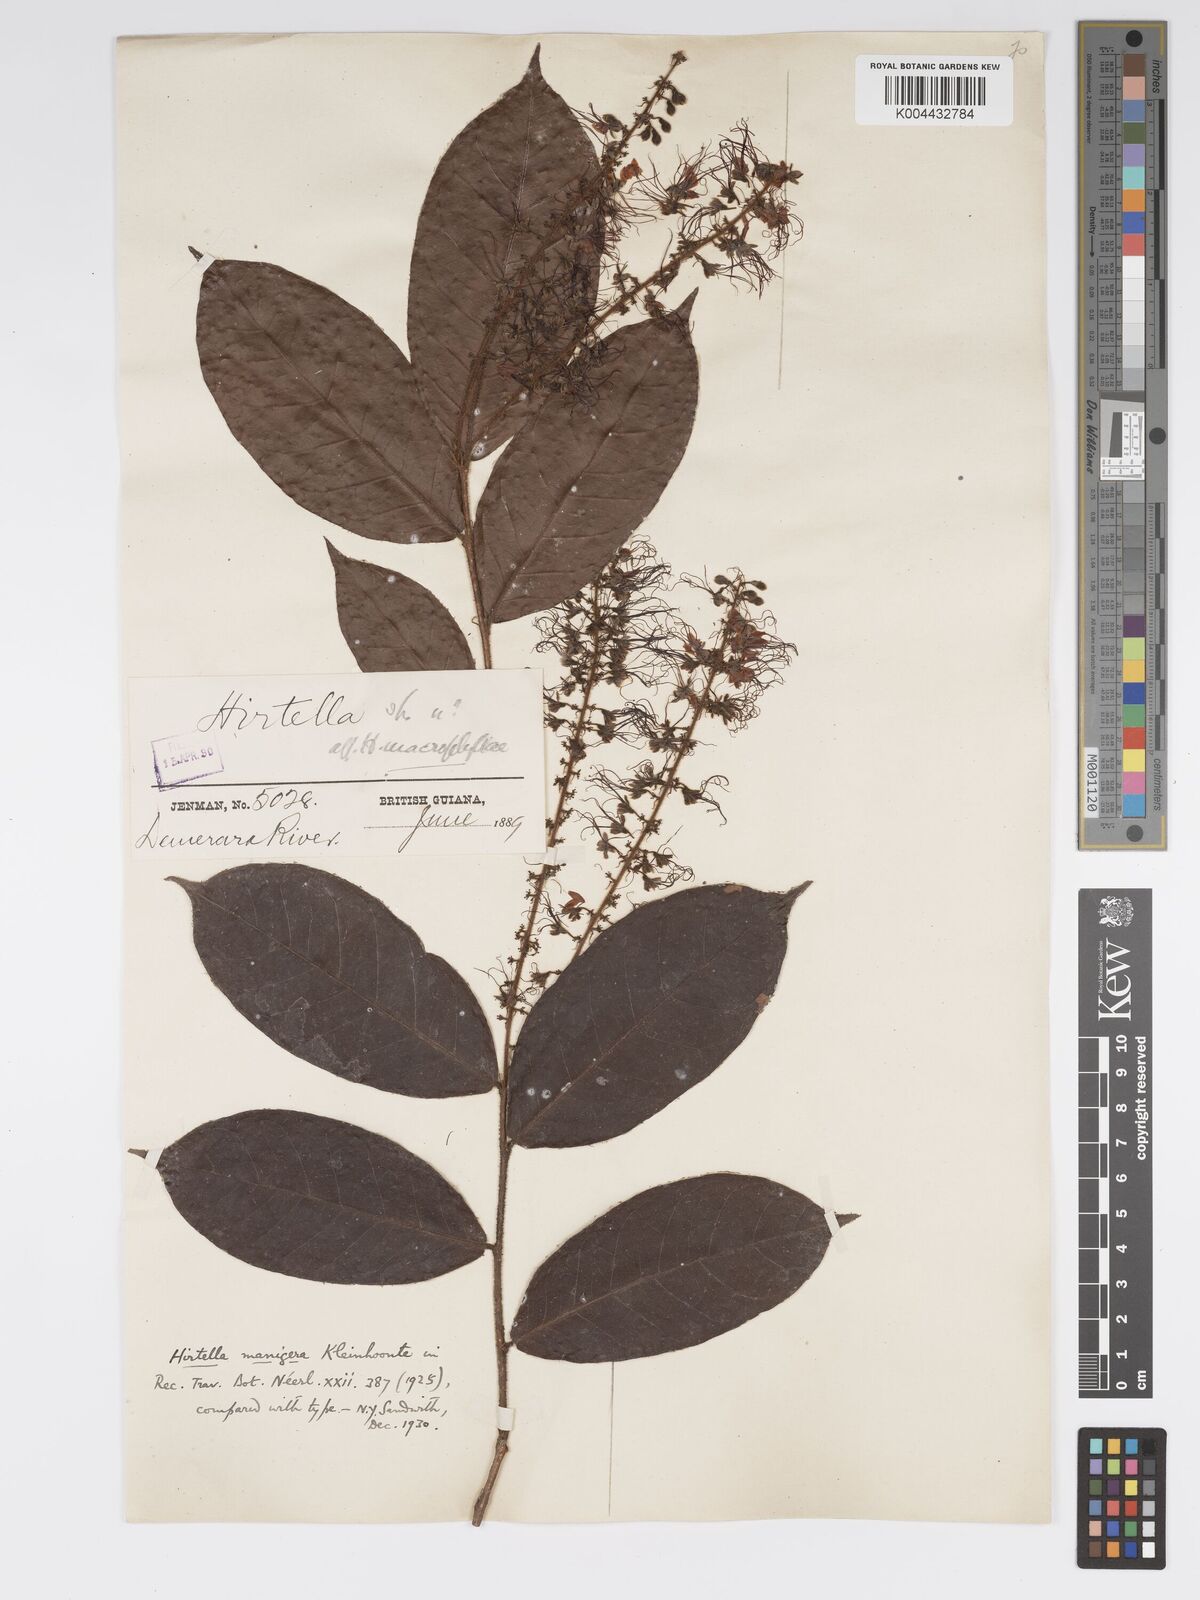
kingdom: Plantae
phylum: Tracheophyta
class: Magnoliopsida
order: Malpighiales
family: Chrysobalanaceae
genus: Hirtella
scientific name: Hirtella silicea
